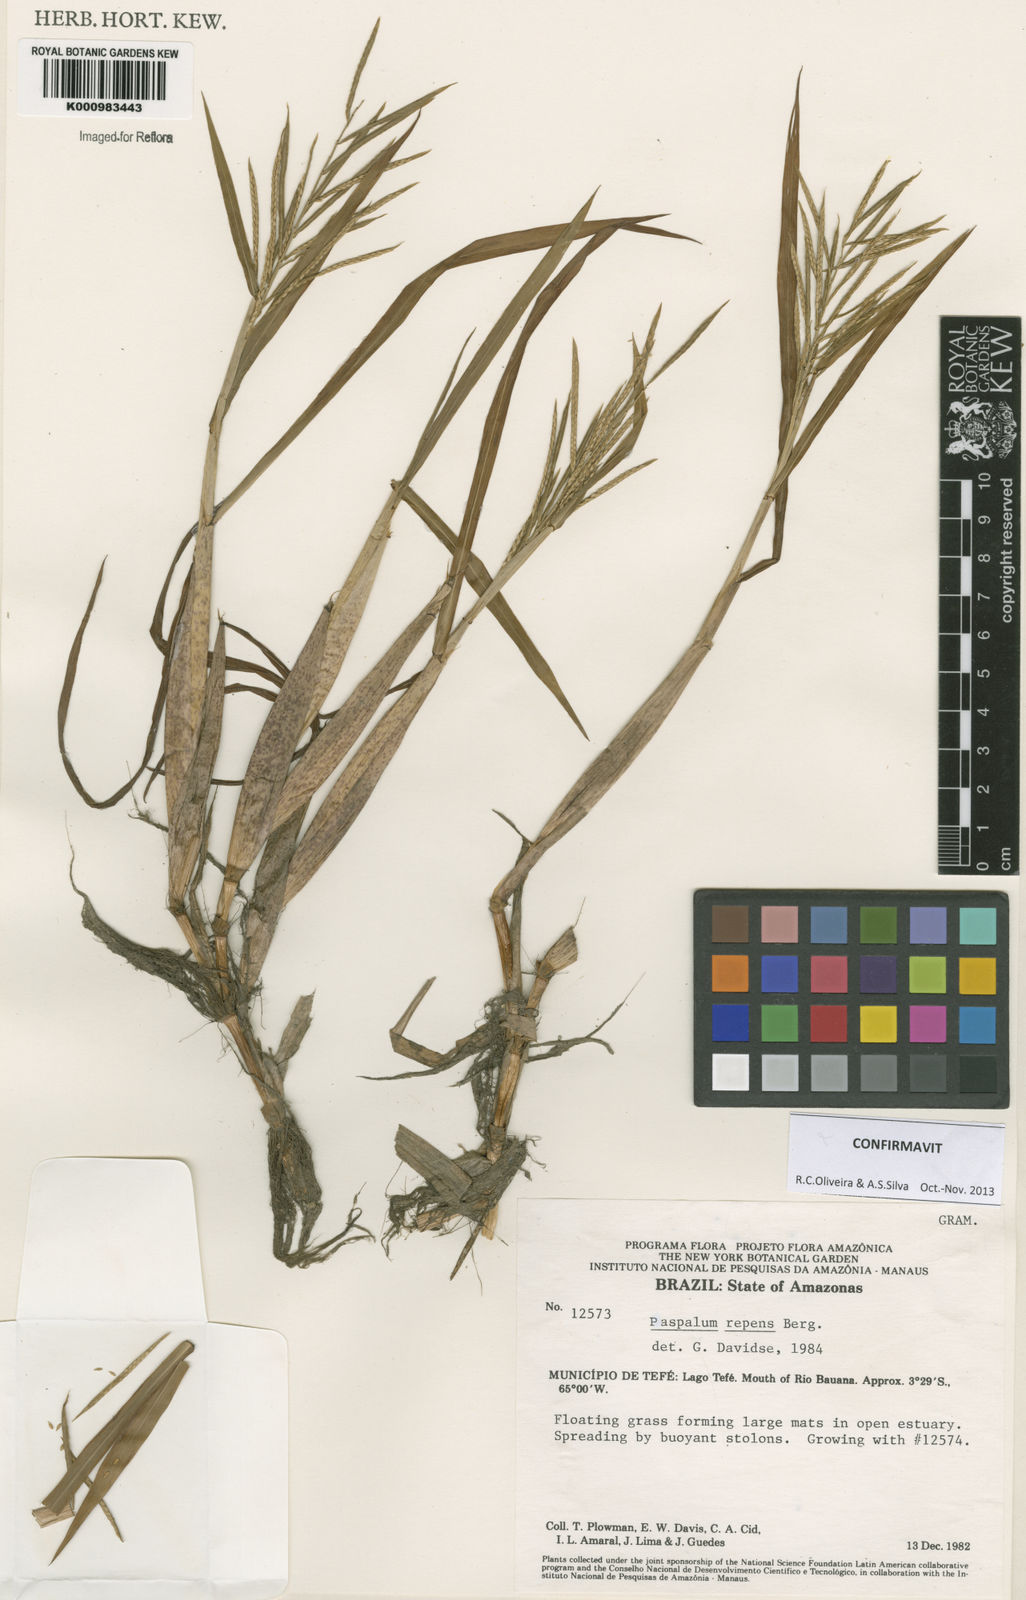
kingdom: Plantae
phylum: Tracheophyta
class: Liliopsida
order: Poales
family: Poaceae
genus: Paspalum
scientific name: Paspalum repens
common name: Water paspalum
